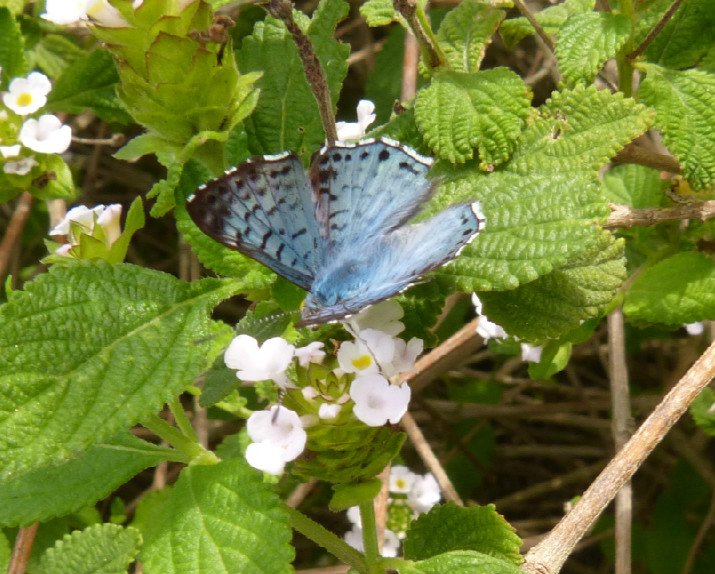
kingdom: Animalia
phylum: Arthropoda
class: Insecta
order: Lepidoptera
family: Riodinidae
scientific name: Riodinidae
